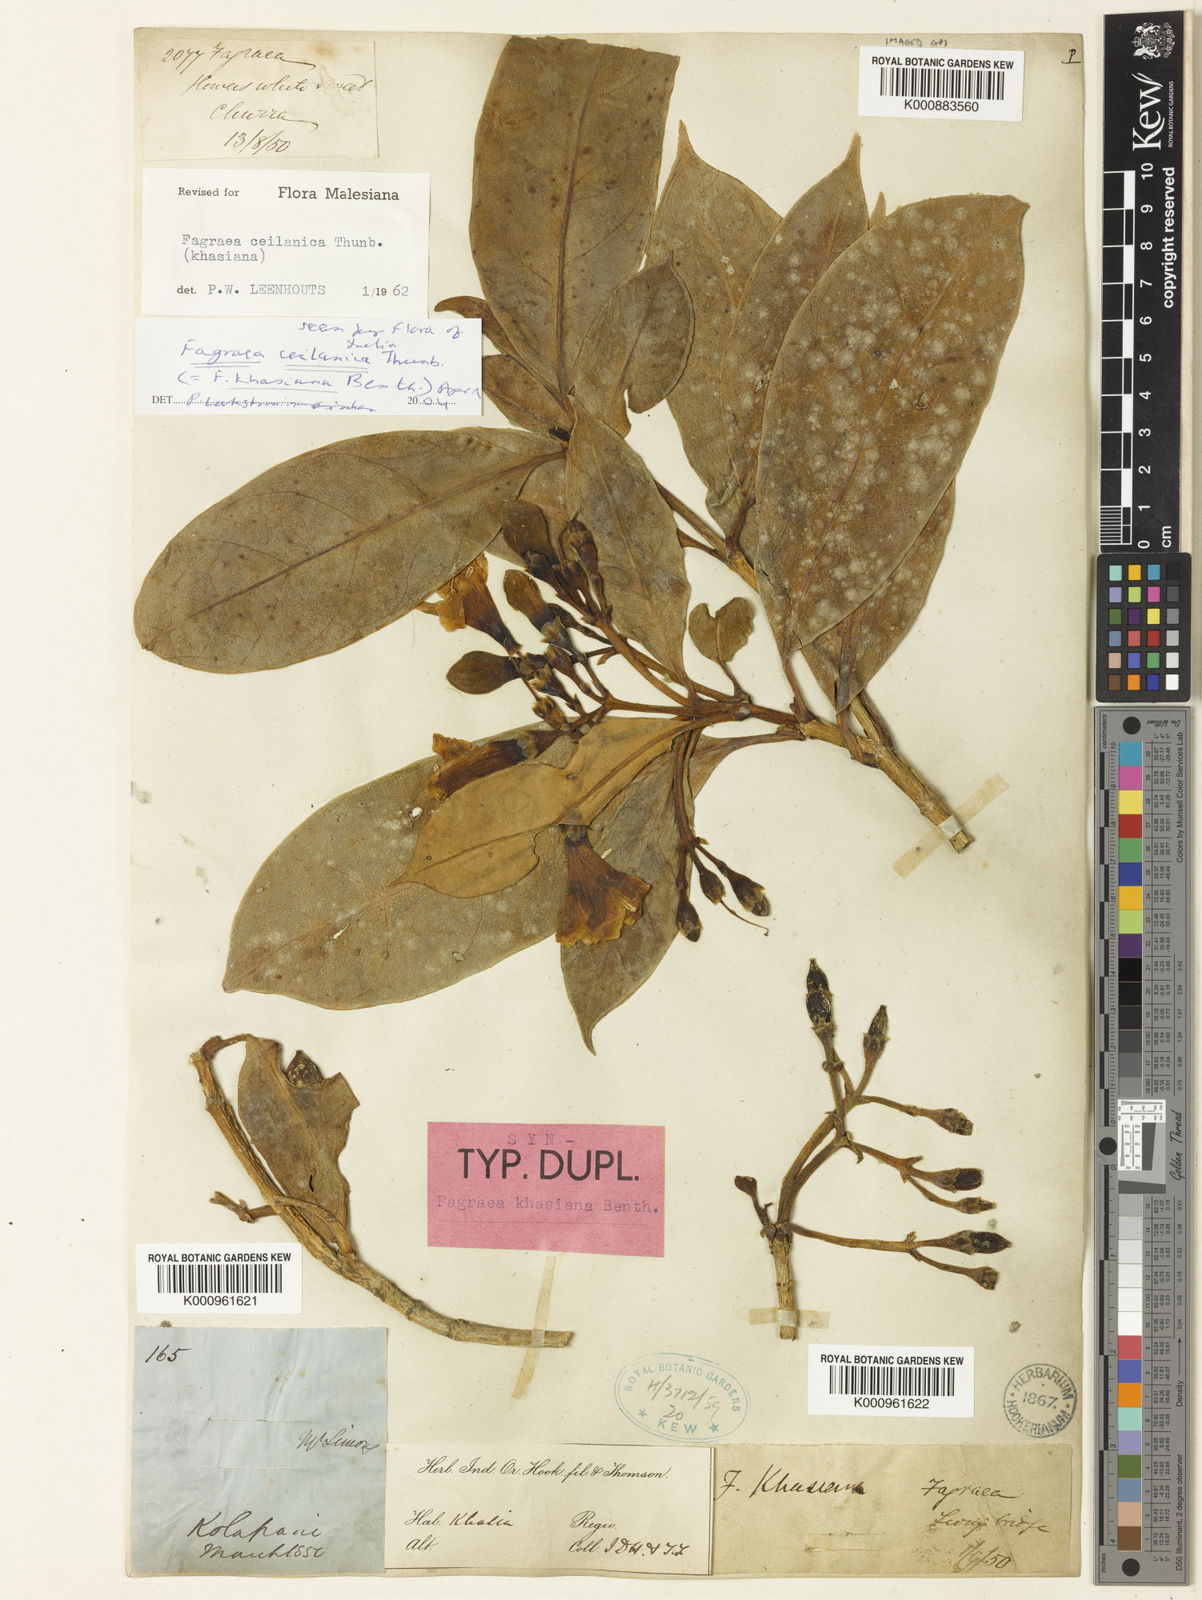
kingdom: Plantae
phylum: Tracheophyta
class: Magnoliopsida
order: Gentianales
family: Gentianaceae
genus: Fagraea
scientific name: Fagraea ceilanica
